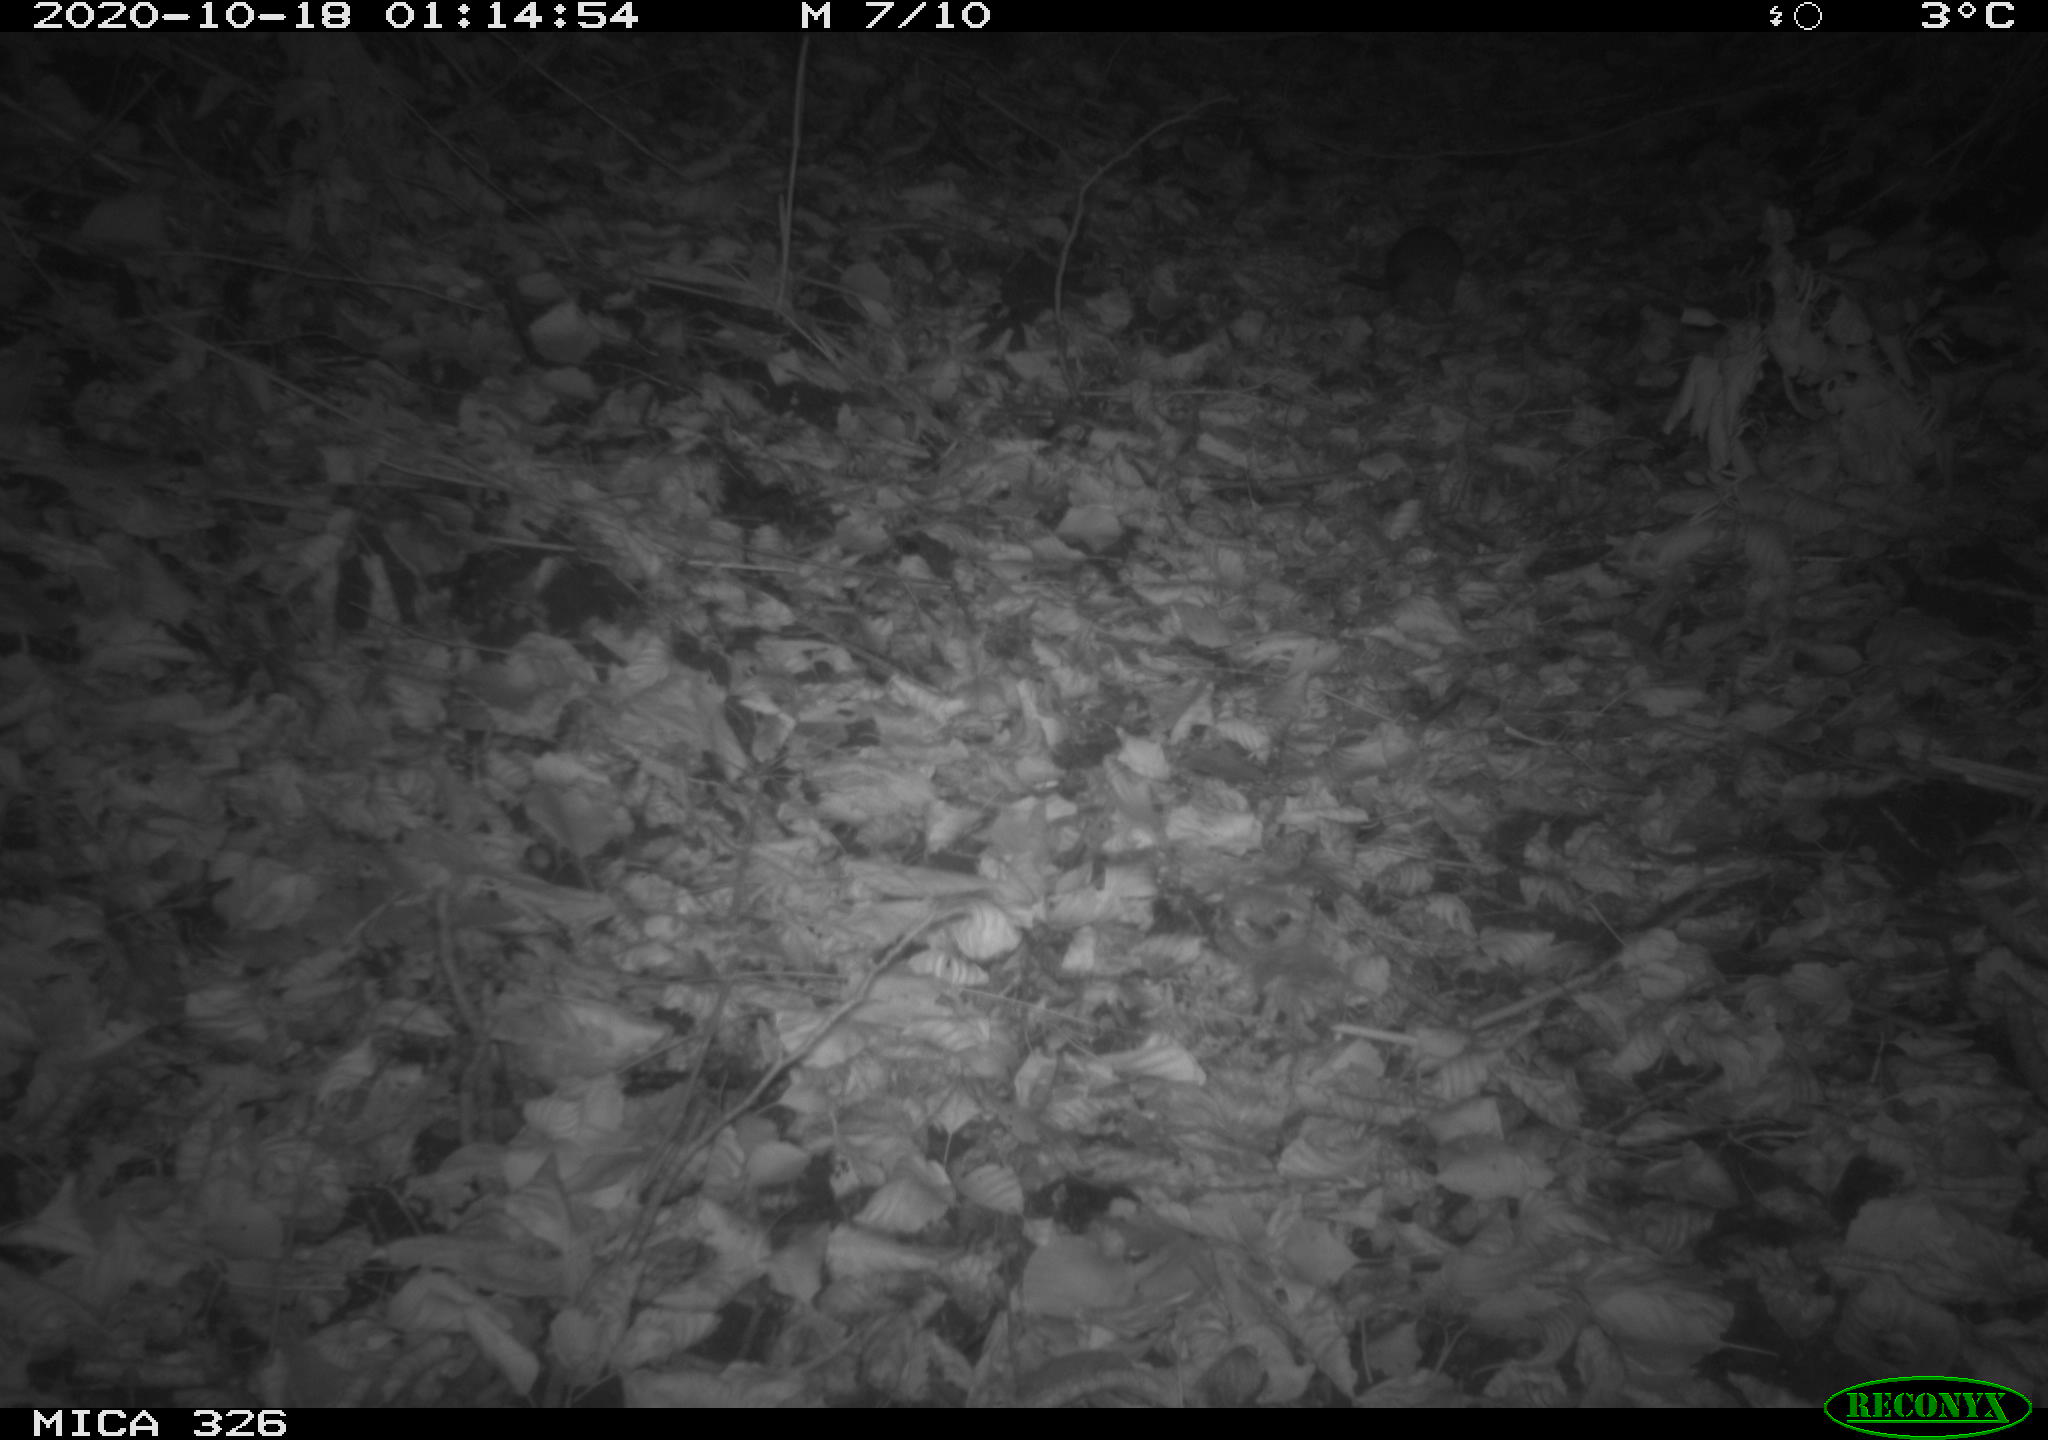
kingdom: Animalia
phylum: Chordata
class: Mammalia
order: Rodentia
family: Muridae
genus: Rattus
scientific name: Rattus norvegicus
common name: Brown rat
